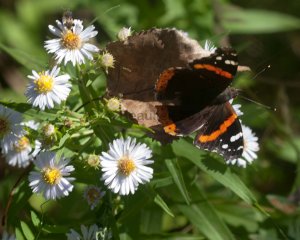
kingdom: Animalia
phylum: Arthropoda
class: Insecta
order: Lepidoptera
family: Nymphalidae
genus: Vanessa
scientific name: Vanessa atalanta
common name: Red Admiral
